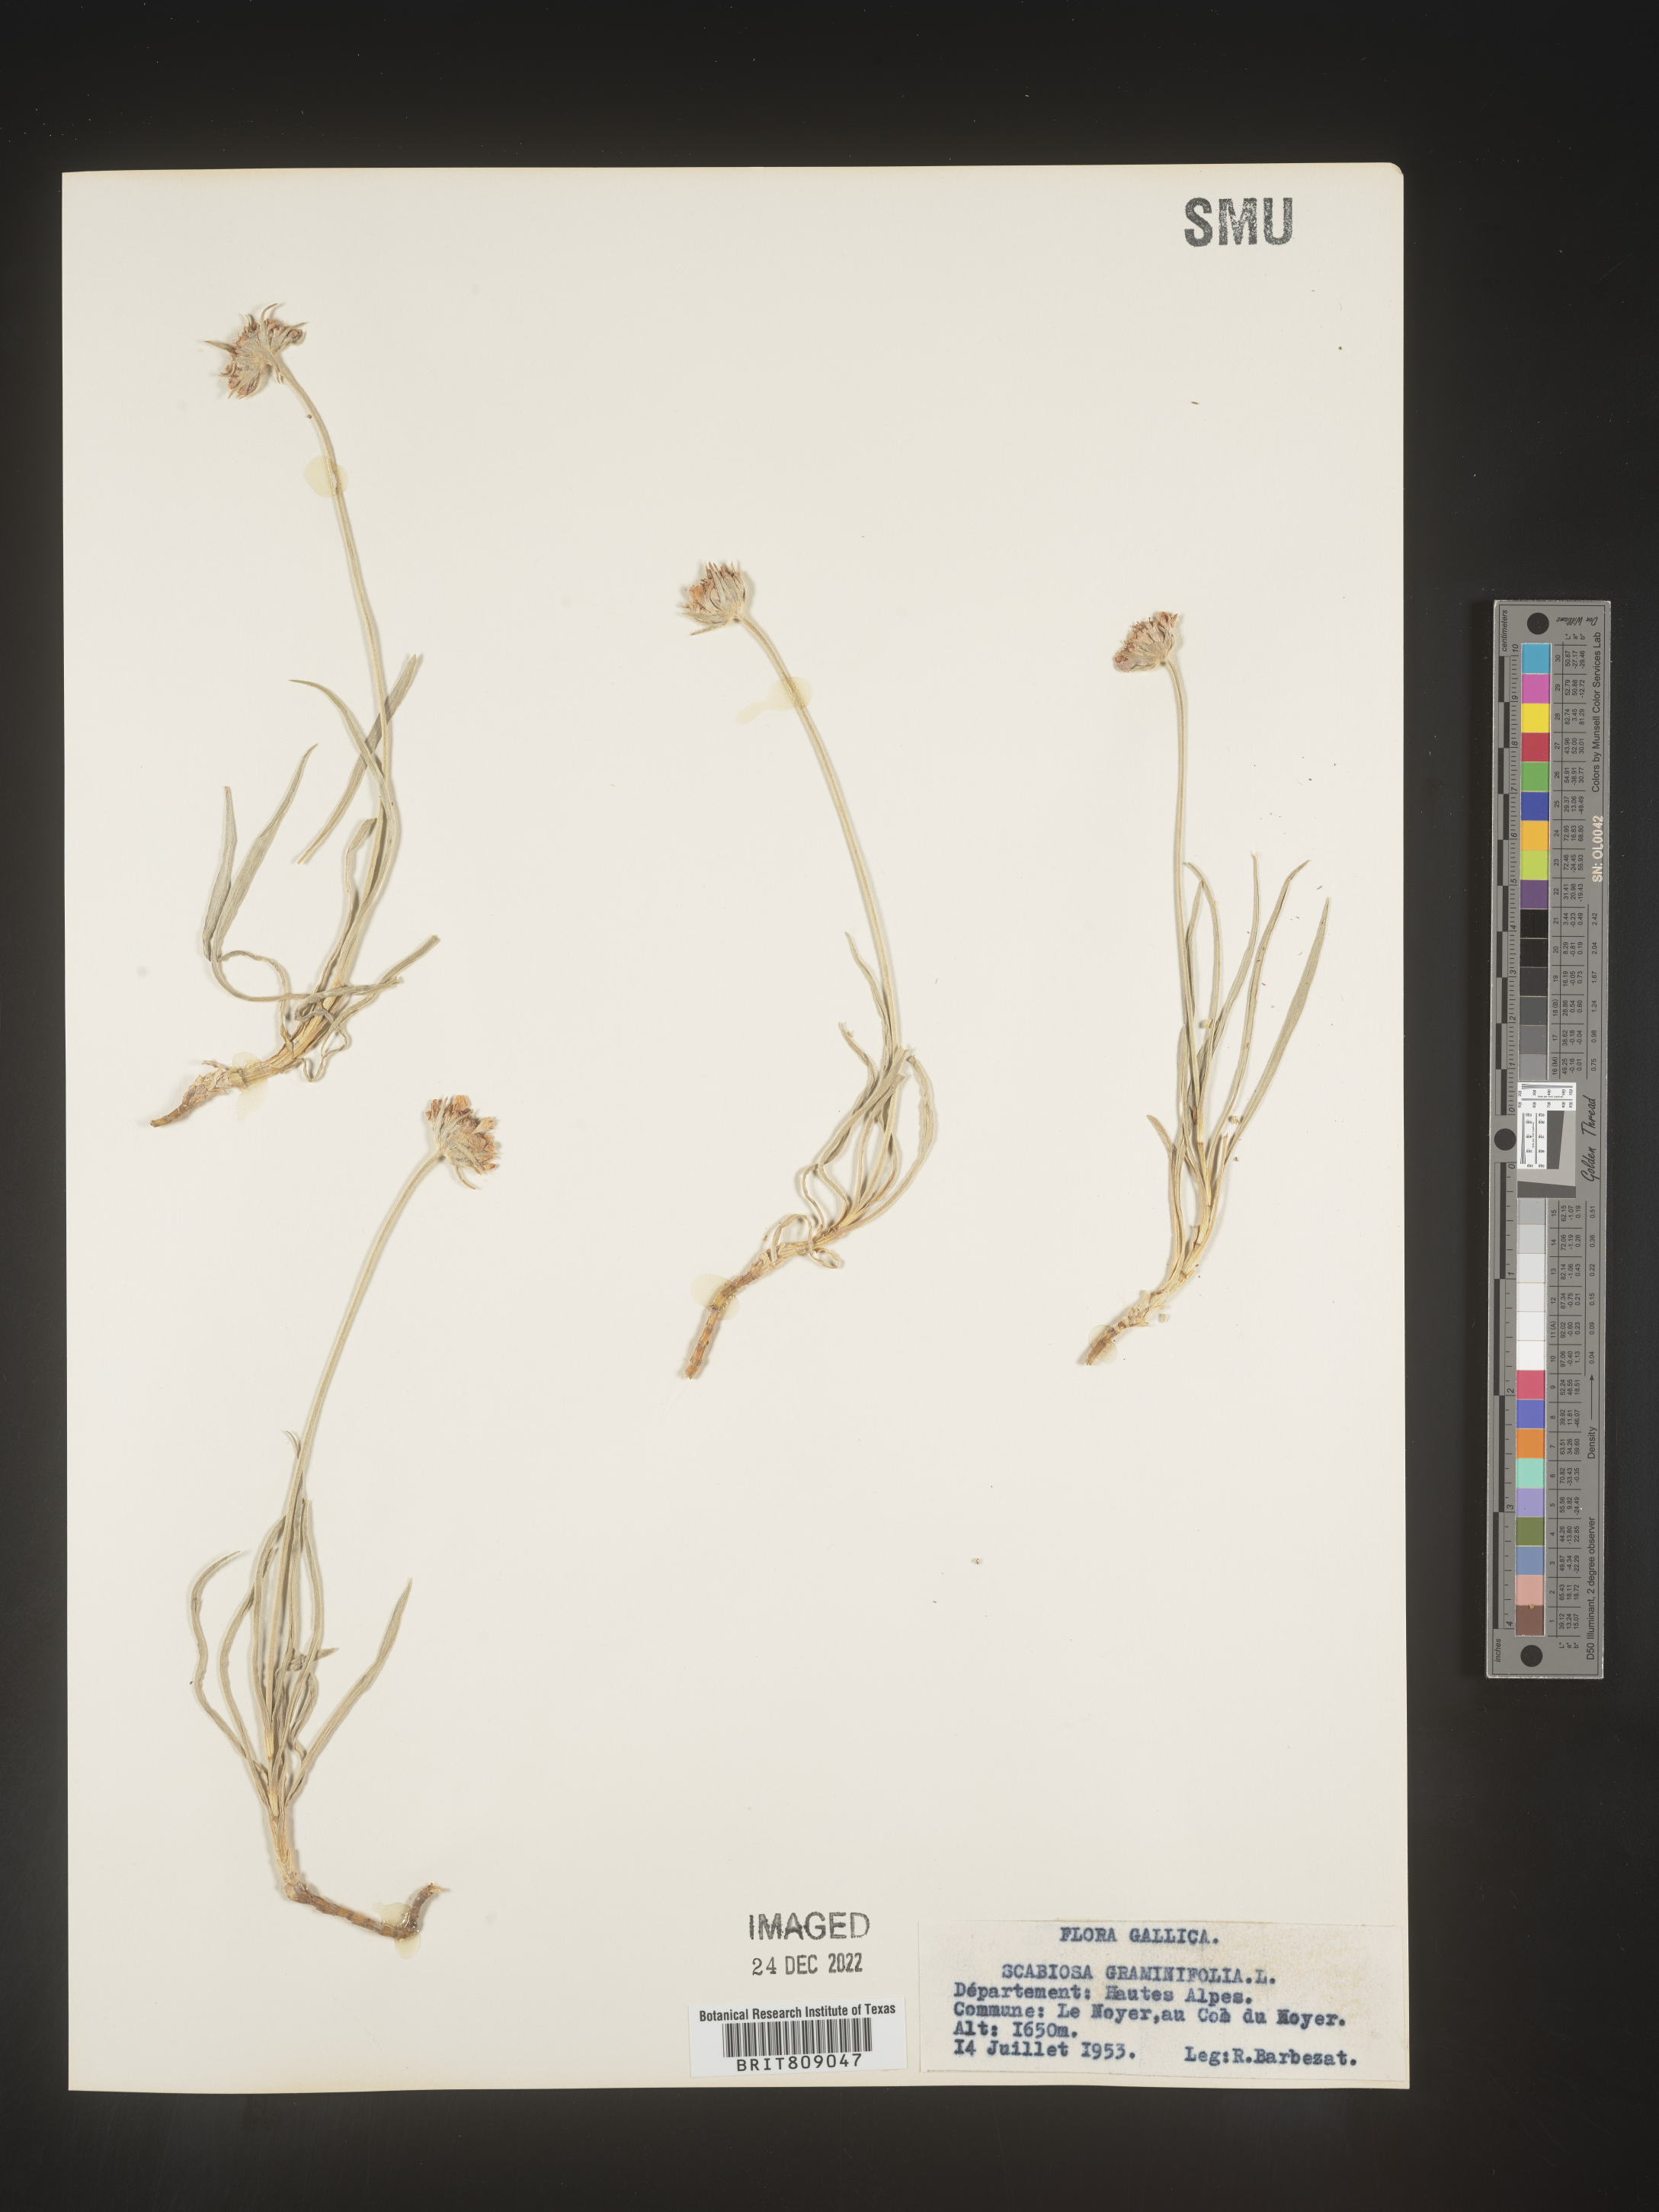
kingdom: Plantae
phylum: Tracheophyta
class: Magnoliopsida
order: Dipsacales
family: Caprifoliaceae
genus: Scabiosa
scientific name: Scabiosa
